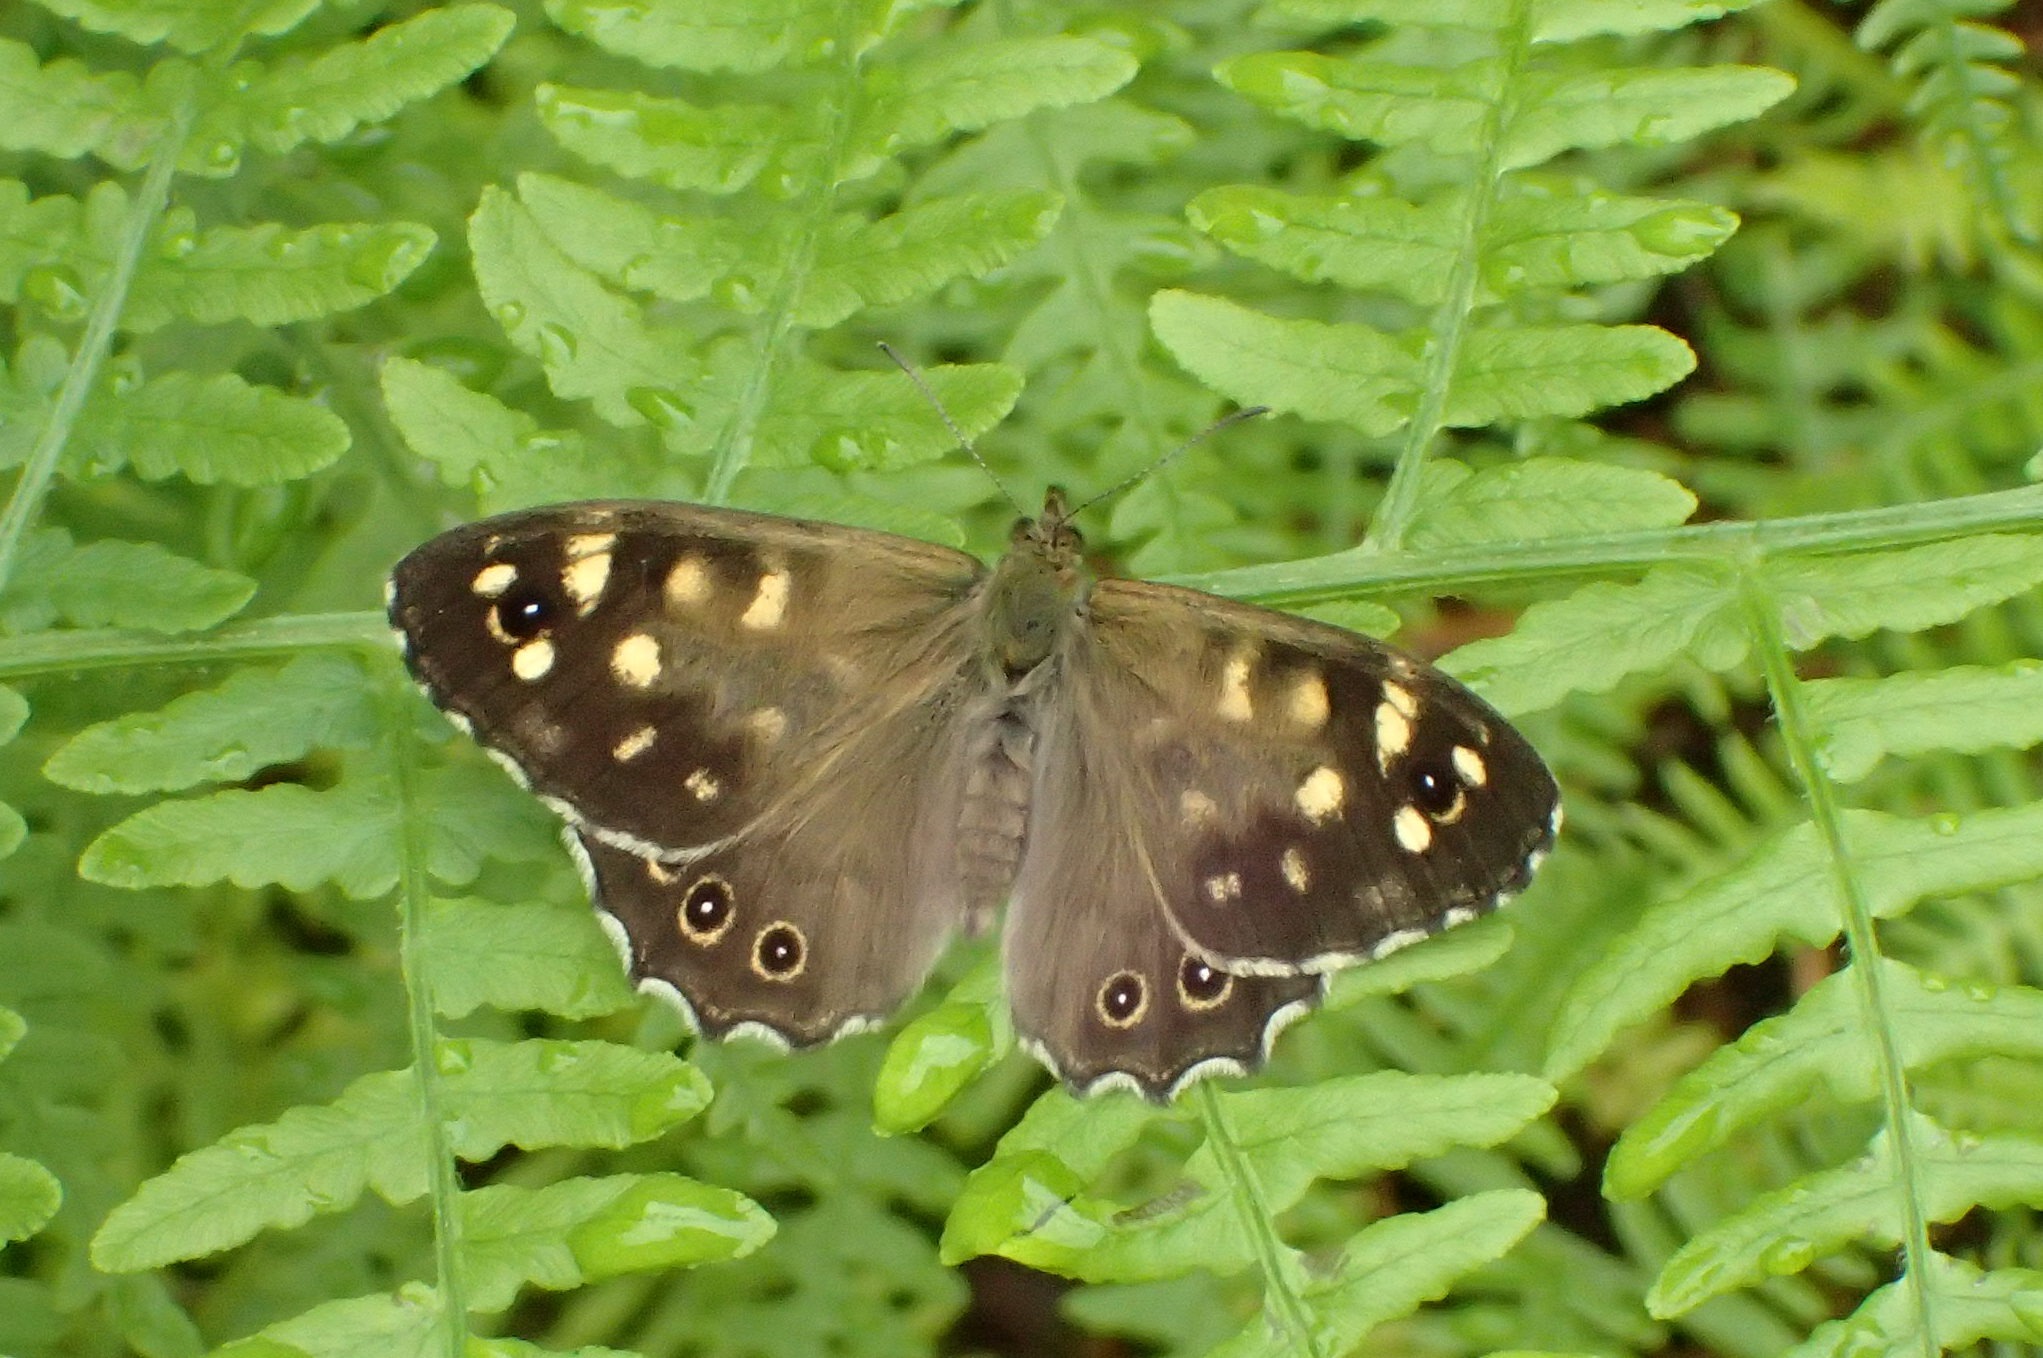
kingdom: Animalia
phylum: Arthropoda
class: Insecta
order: Lepidoptera
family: Nymphalidae
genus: Pararge
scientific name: Pararge aegeria
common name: Skovrandøje
